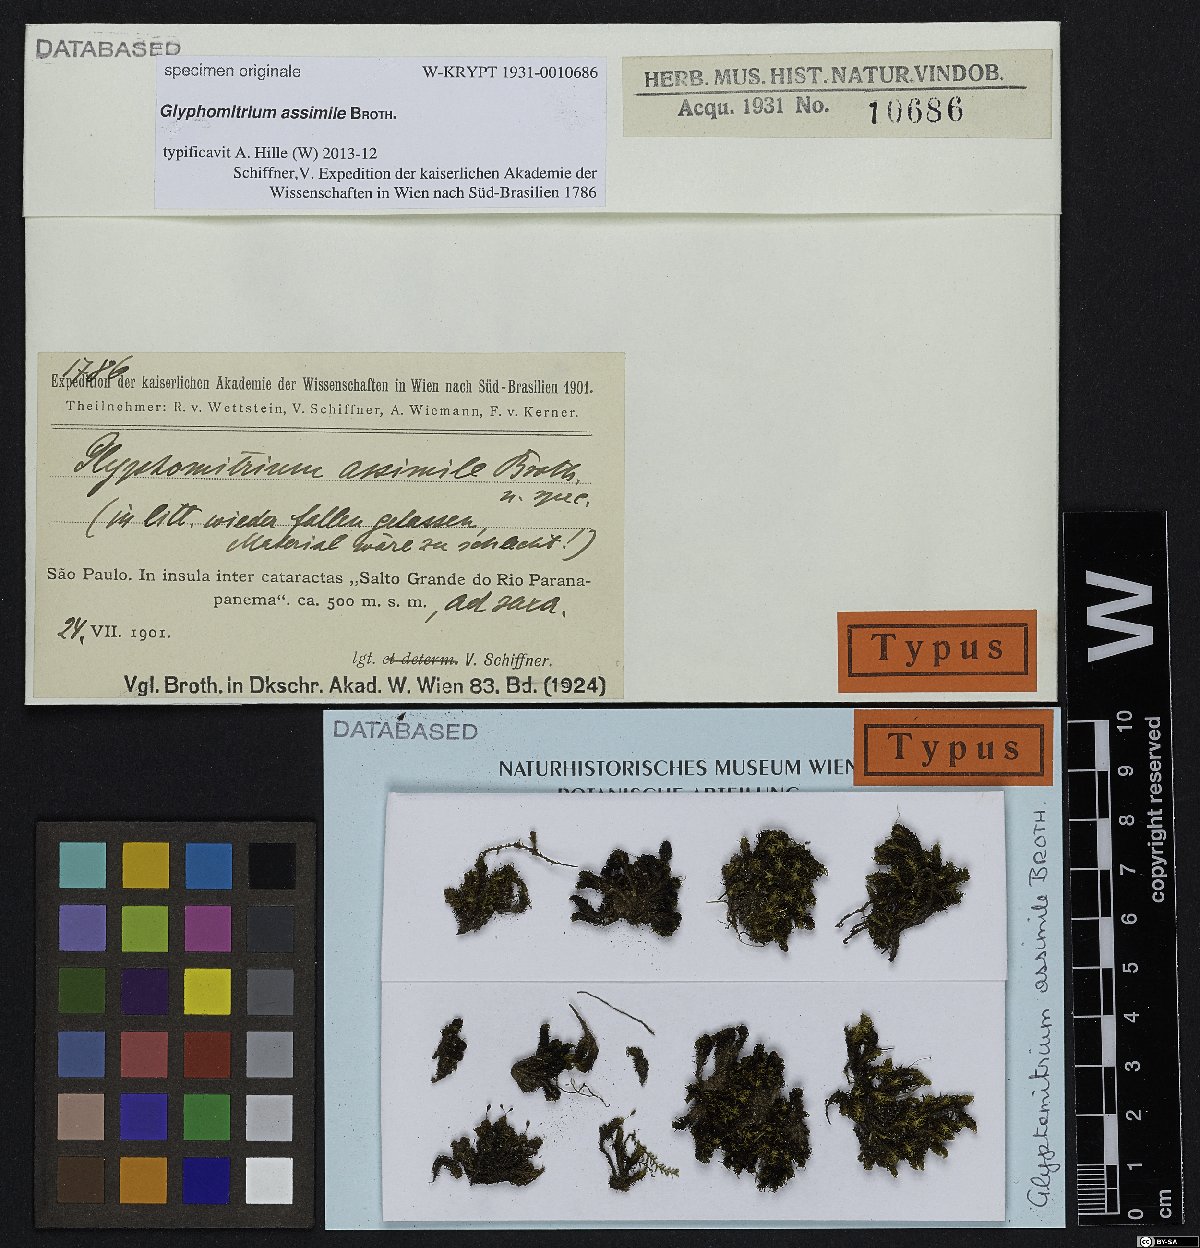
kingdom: Plantae
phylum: Bryophyta
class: Bryopsida
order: Grimmiales
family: Ptychomitriaceae
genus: Glyphomitrium
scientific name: Glyphomitrium
